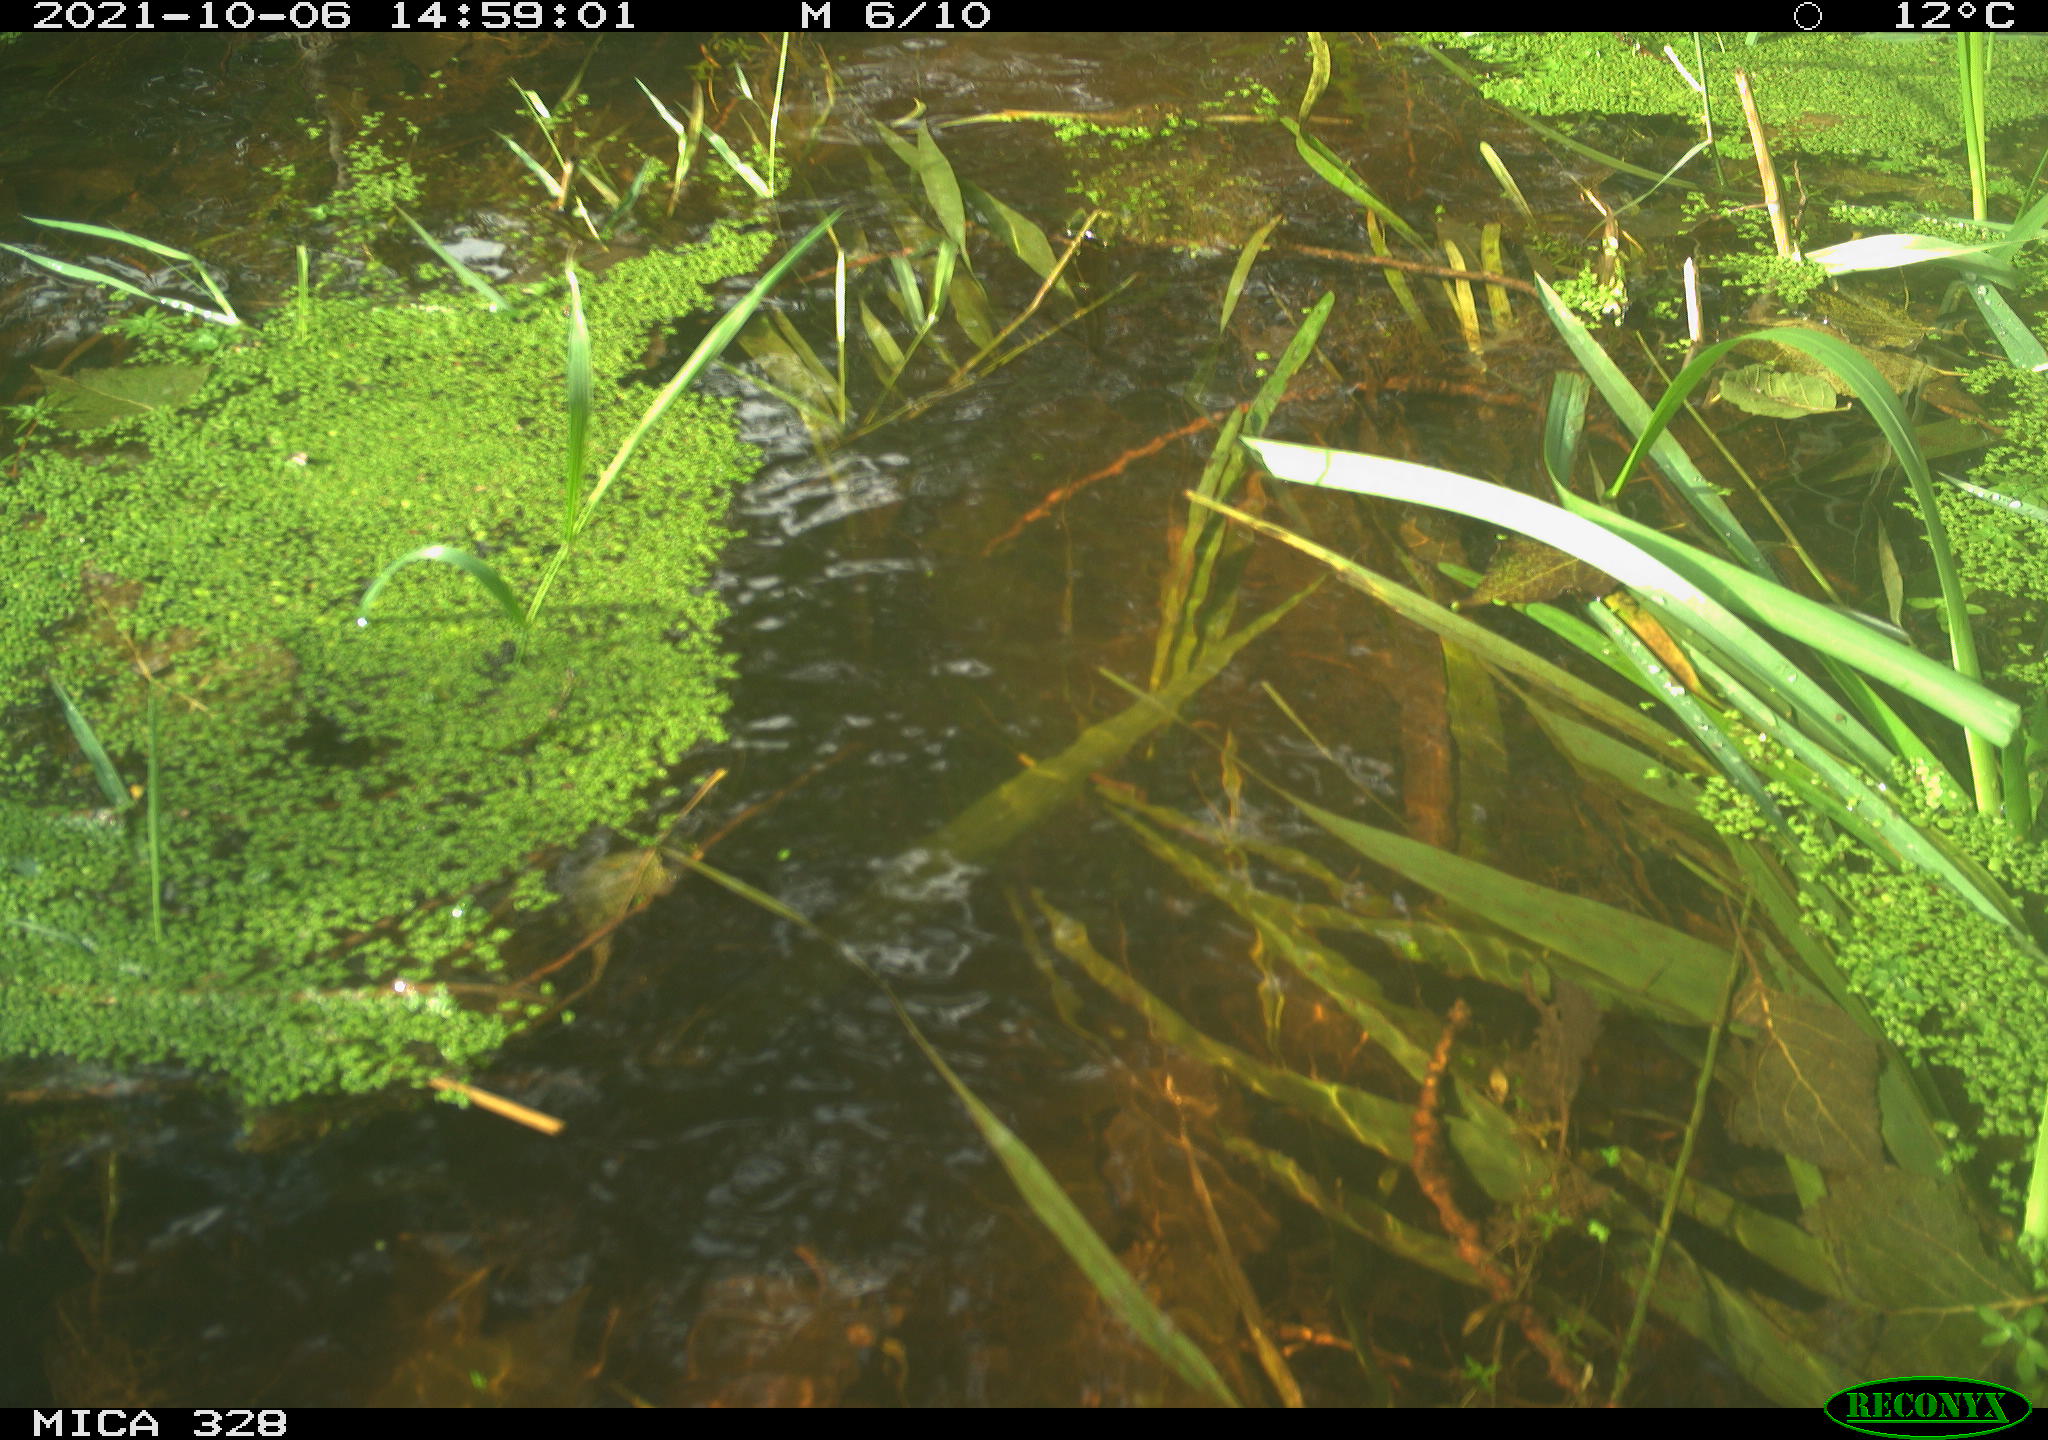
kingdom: Animalia
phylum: Chordata
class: Mammalia
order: Rodentia
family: Cricetidae
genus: Ondatra
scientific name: Ondatra zibethicus
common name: Muskrat
